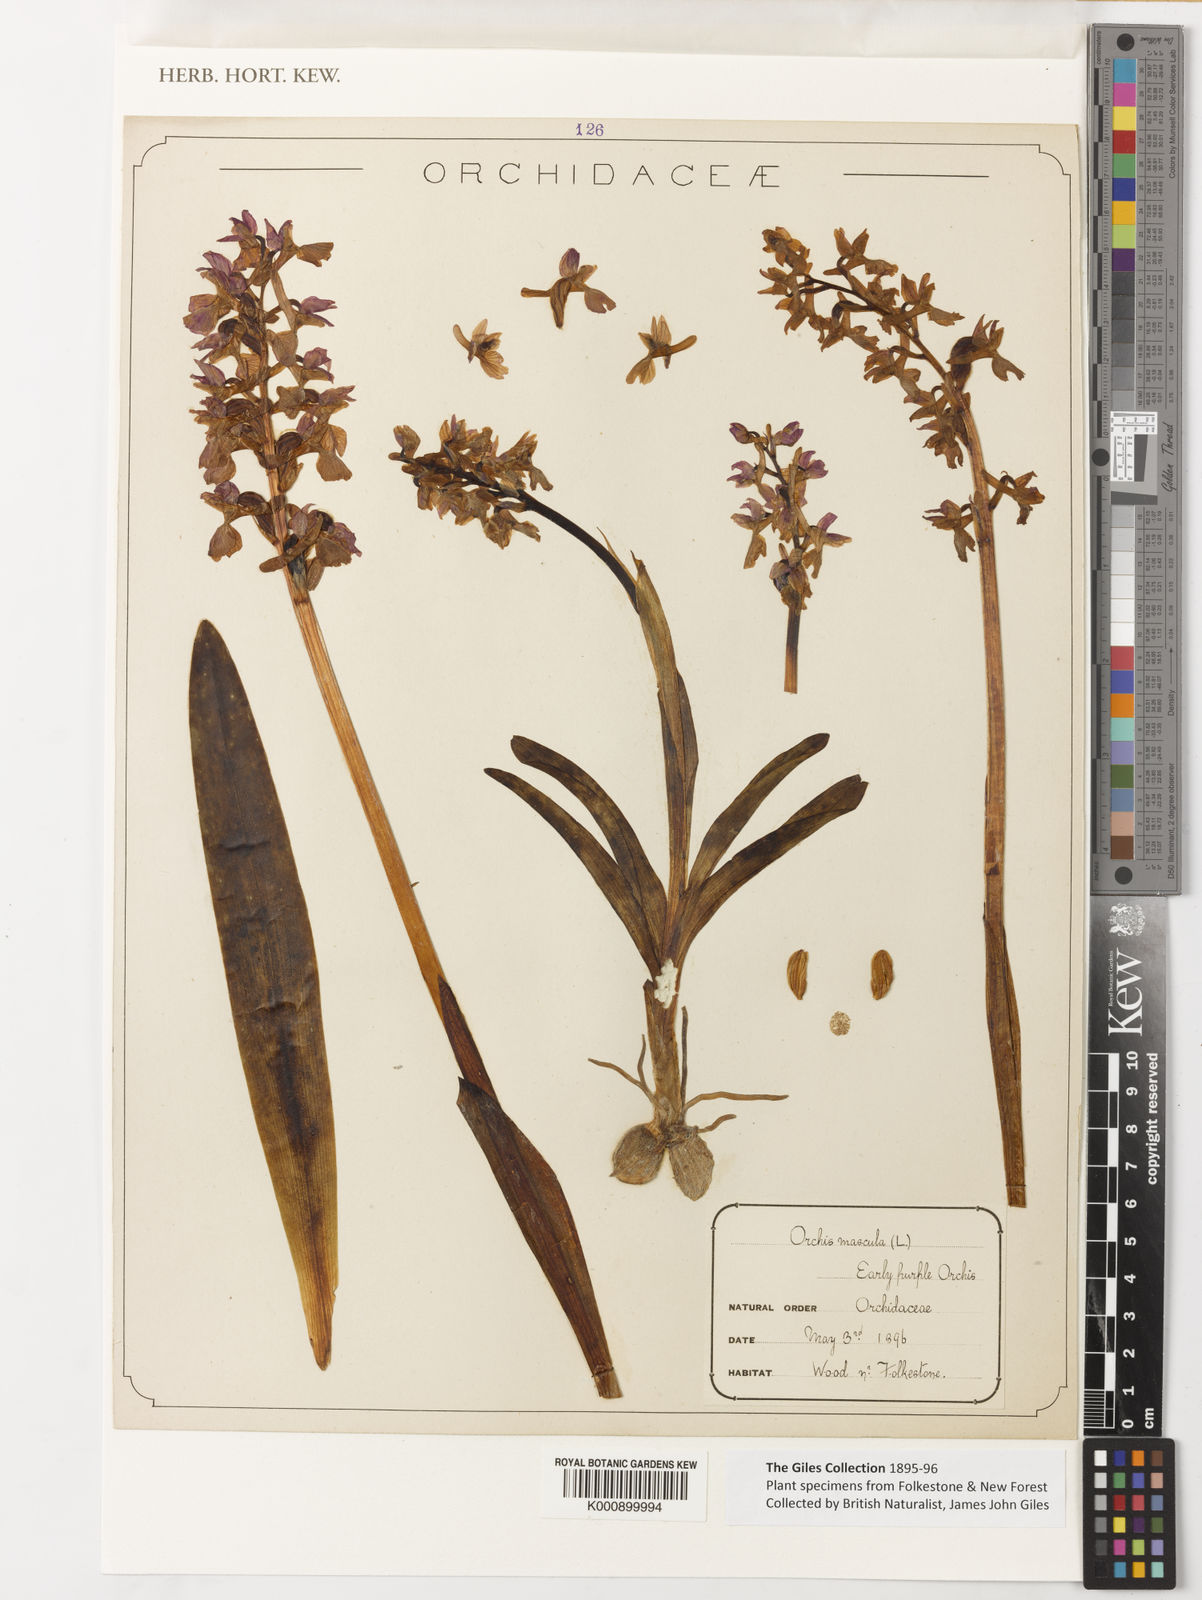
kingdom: Plantae
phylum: Tracheophyta
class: Liliopsida
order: Asparagales
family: Orchidaceae
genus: Orchis
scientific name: Orchis mascula
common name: Early-purple orchid
